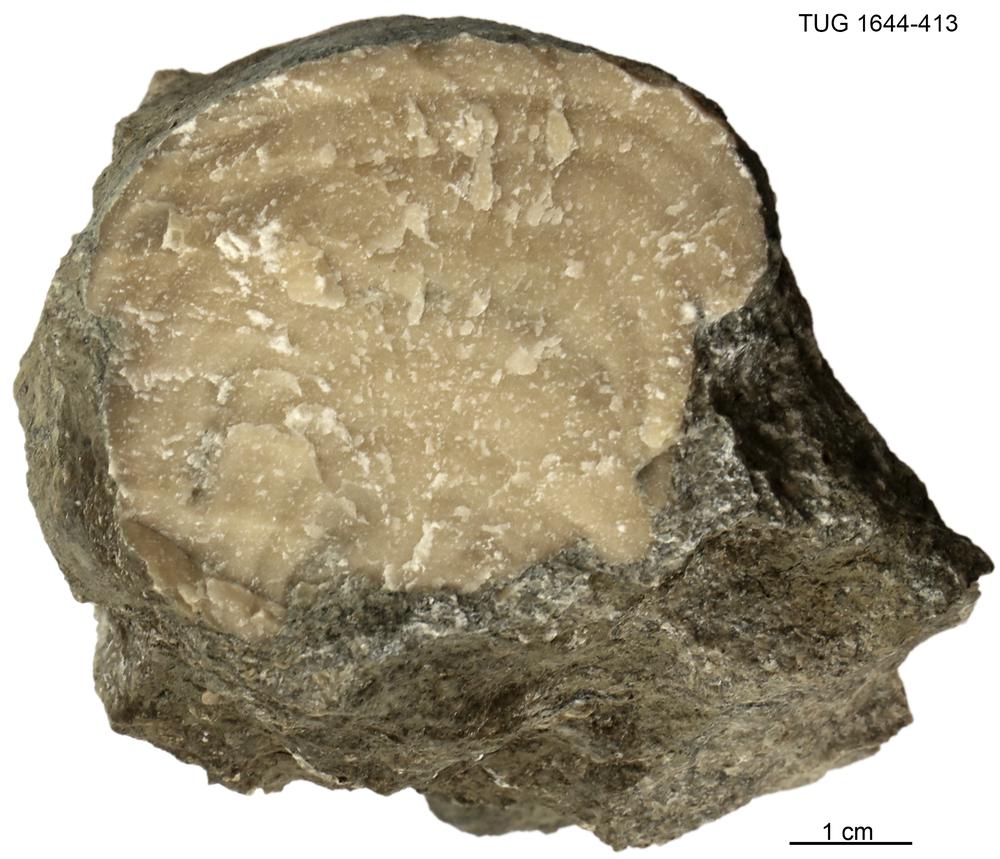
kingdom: Animalia
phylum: Porifera
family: Chaetetidae
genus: Solenopora
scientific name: Solenopora
